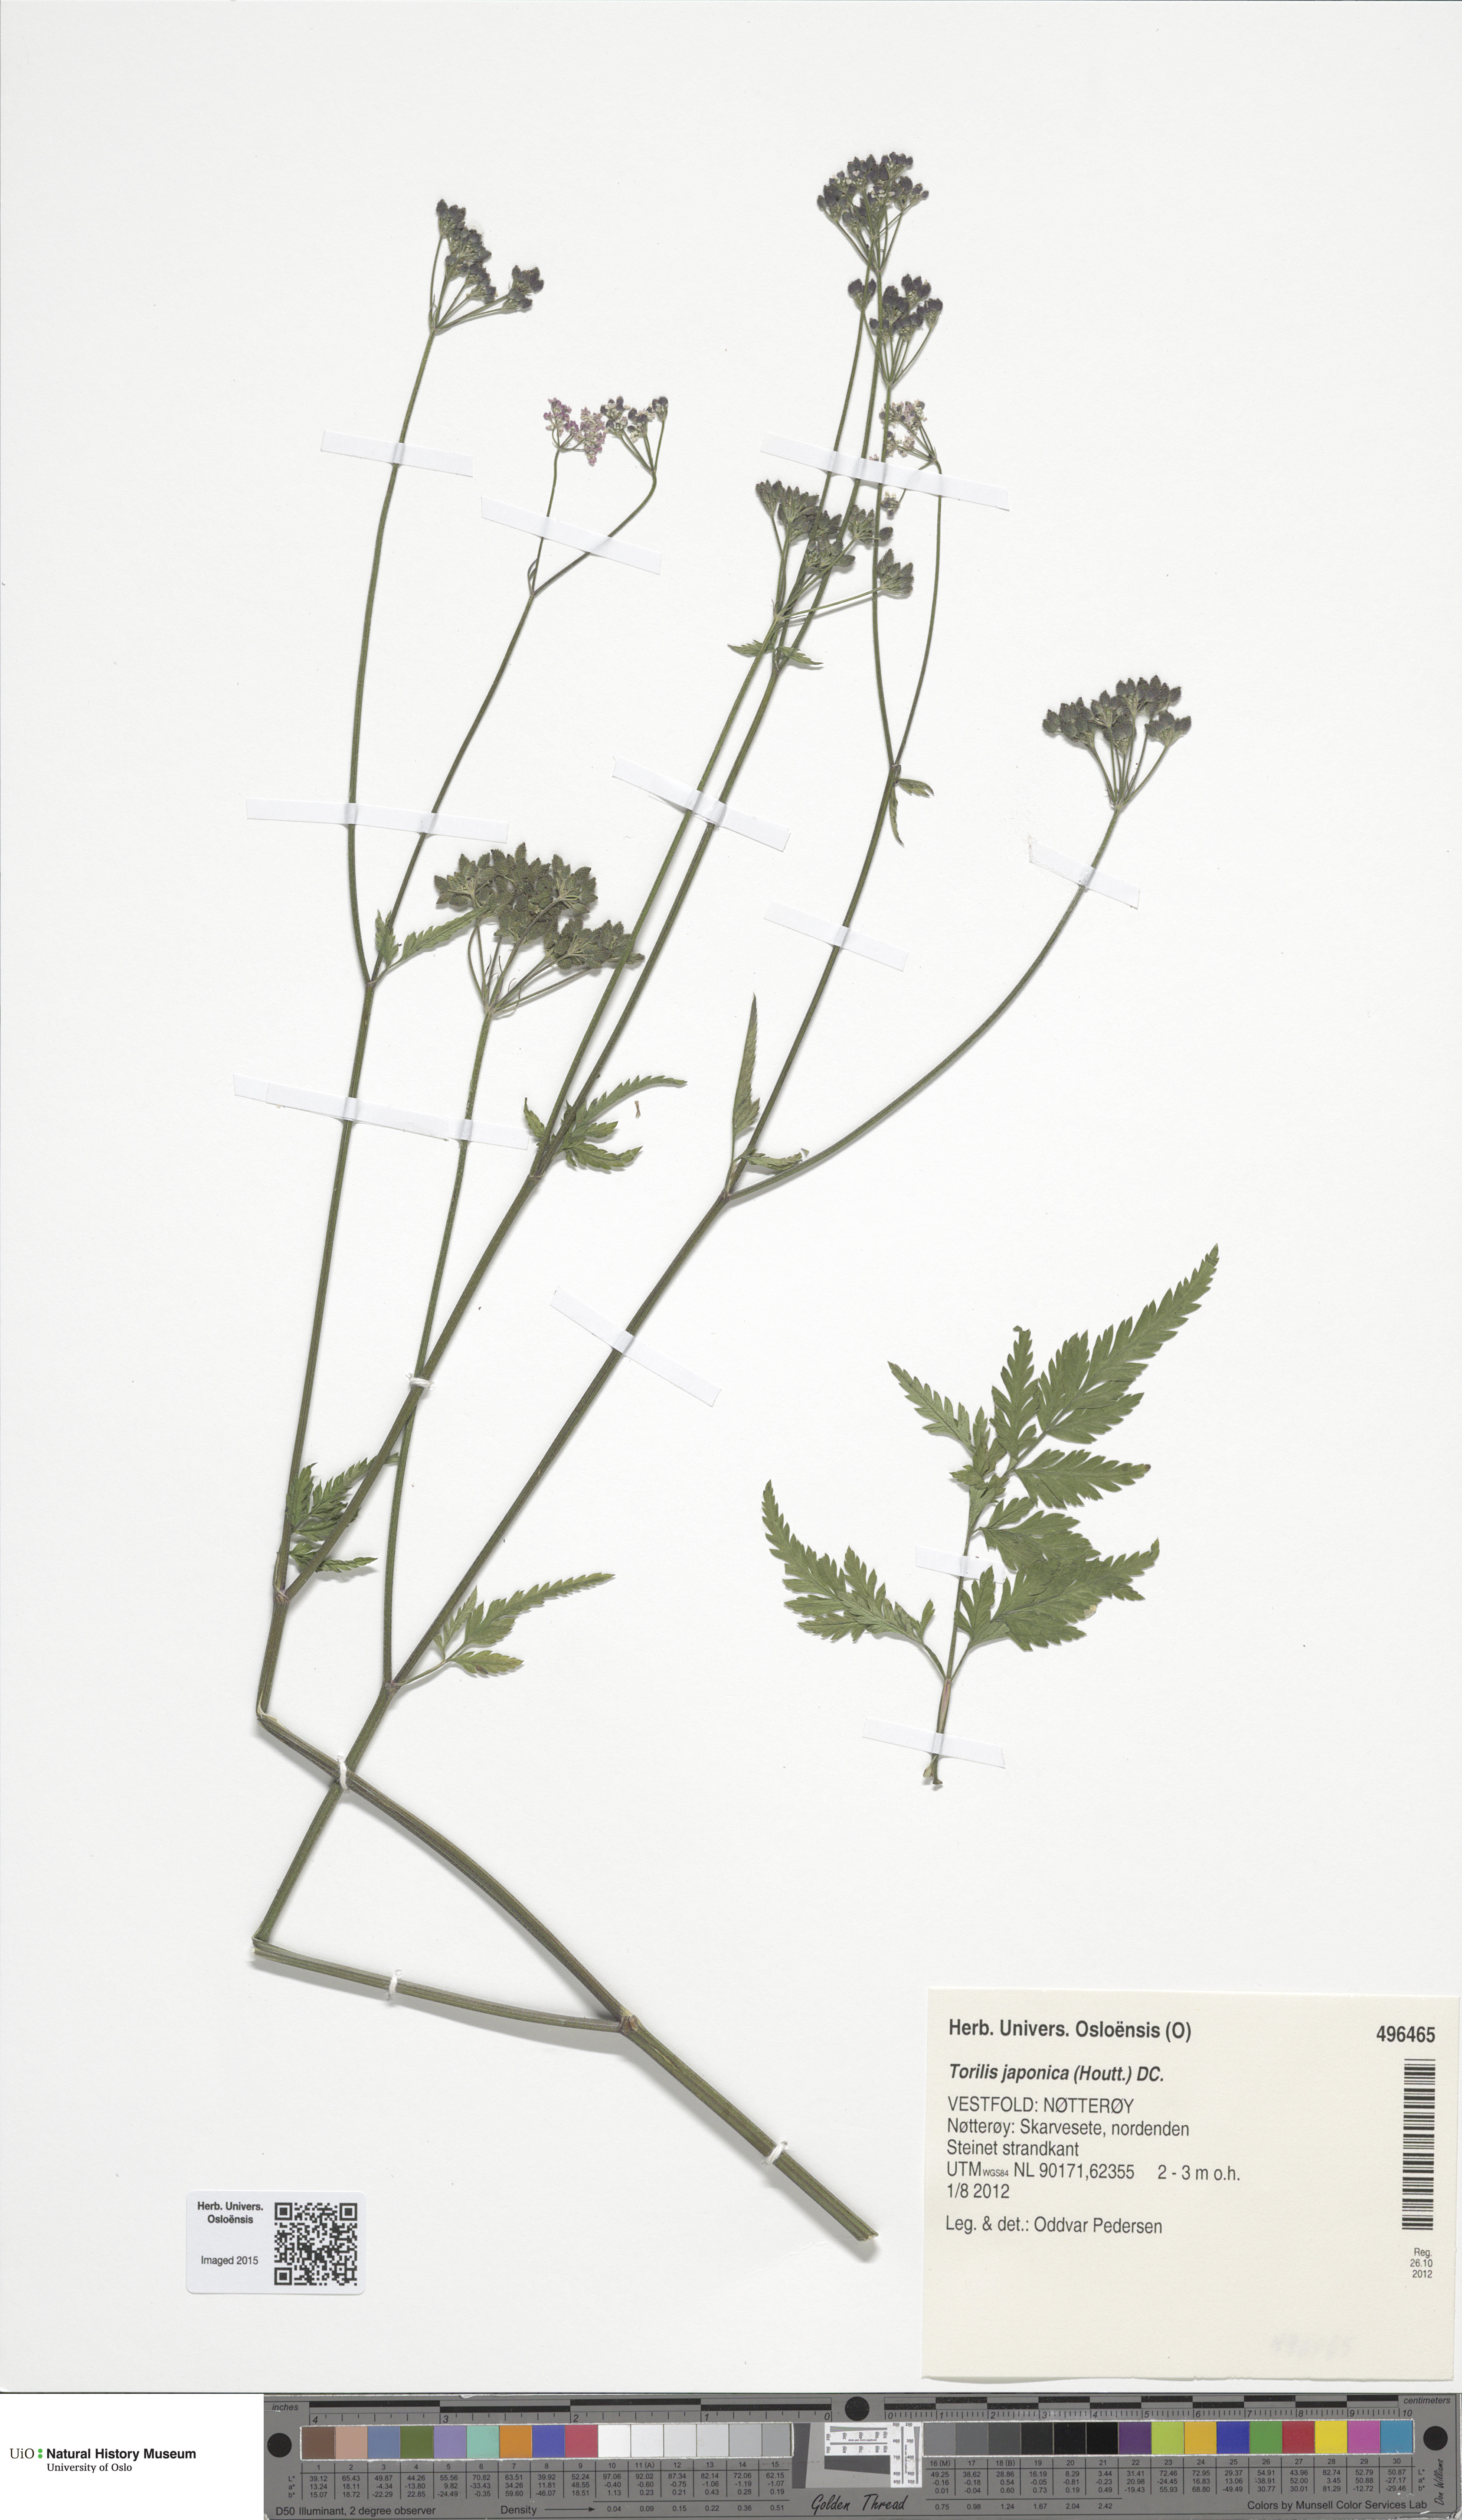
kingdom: Plantae
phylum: Tracheophyta
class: Magnoliopsida
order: Apiales
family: Apiaceae
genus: Torilis
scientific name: Torilis japonica
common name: Upright hedge-parsley
